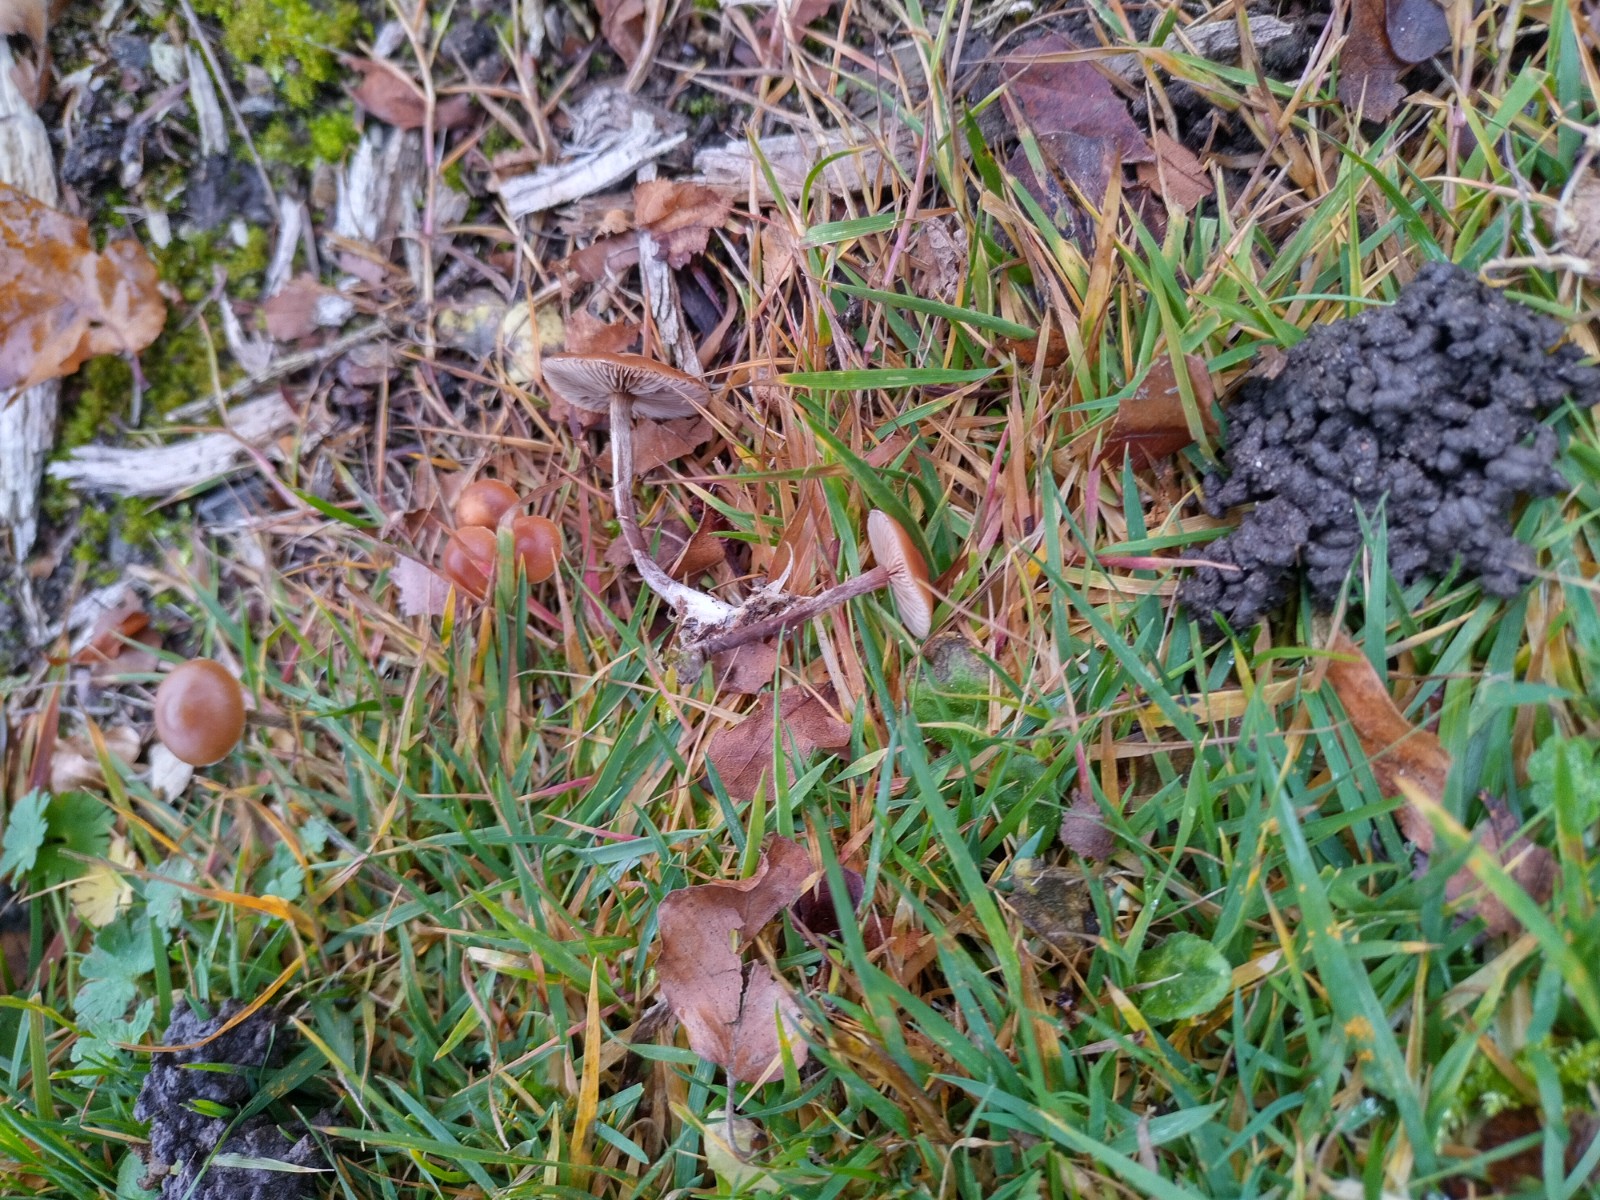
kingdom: Fungi
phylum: Basidiomycota
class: Agaricomycetes
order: Agaricales
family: Hymenogastraceae
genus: Galerina
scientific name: Galerina
